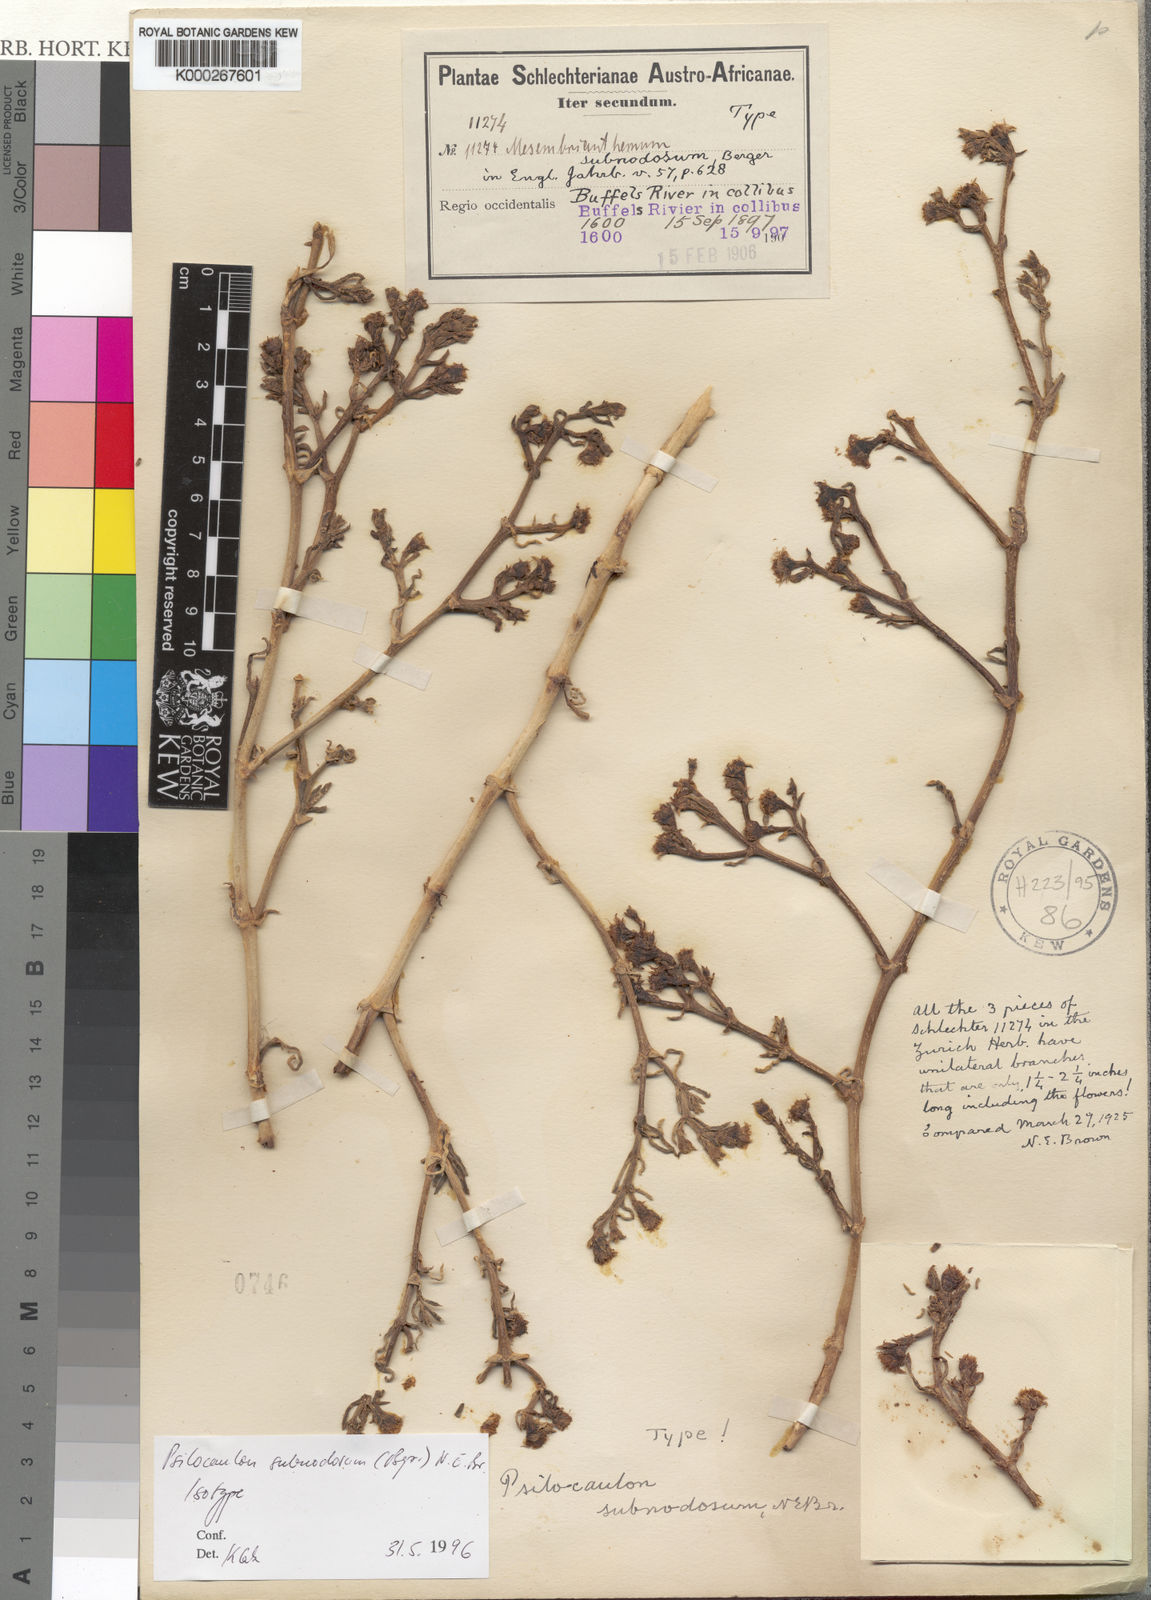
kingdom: Plantae
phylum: Tracheophyta
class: Magnoliopsida
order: Caryophyllales
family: Aizoaceae
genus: Mesembryanthemum
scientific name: Mesembryanthemum subnodosum
